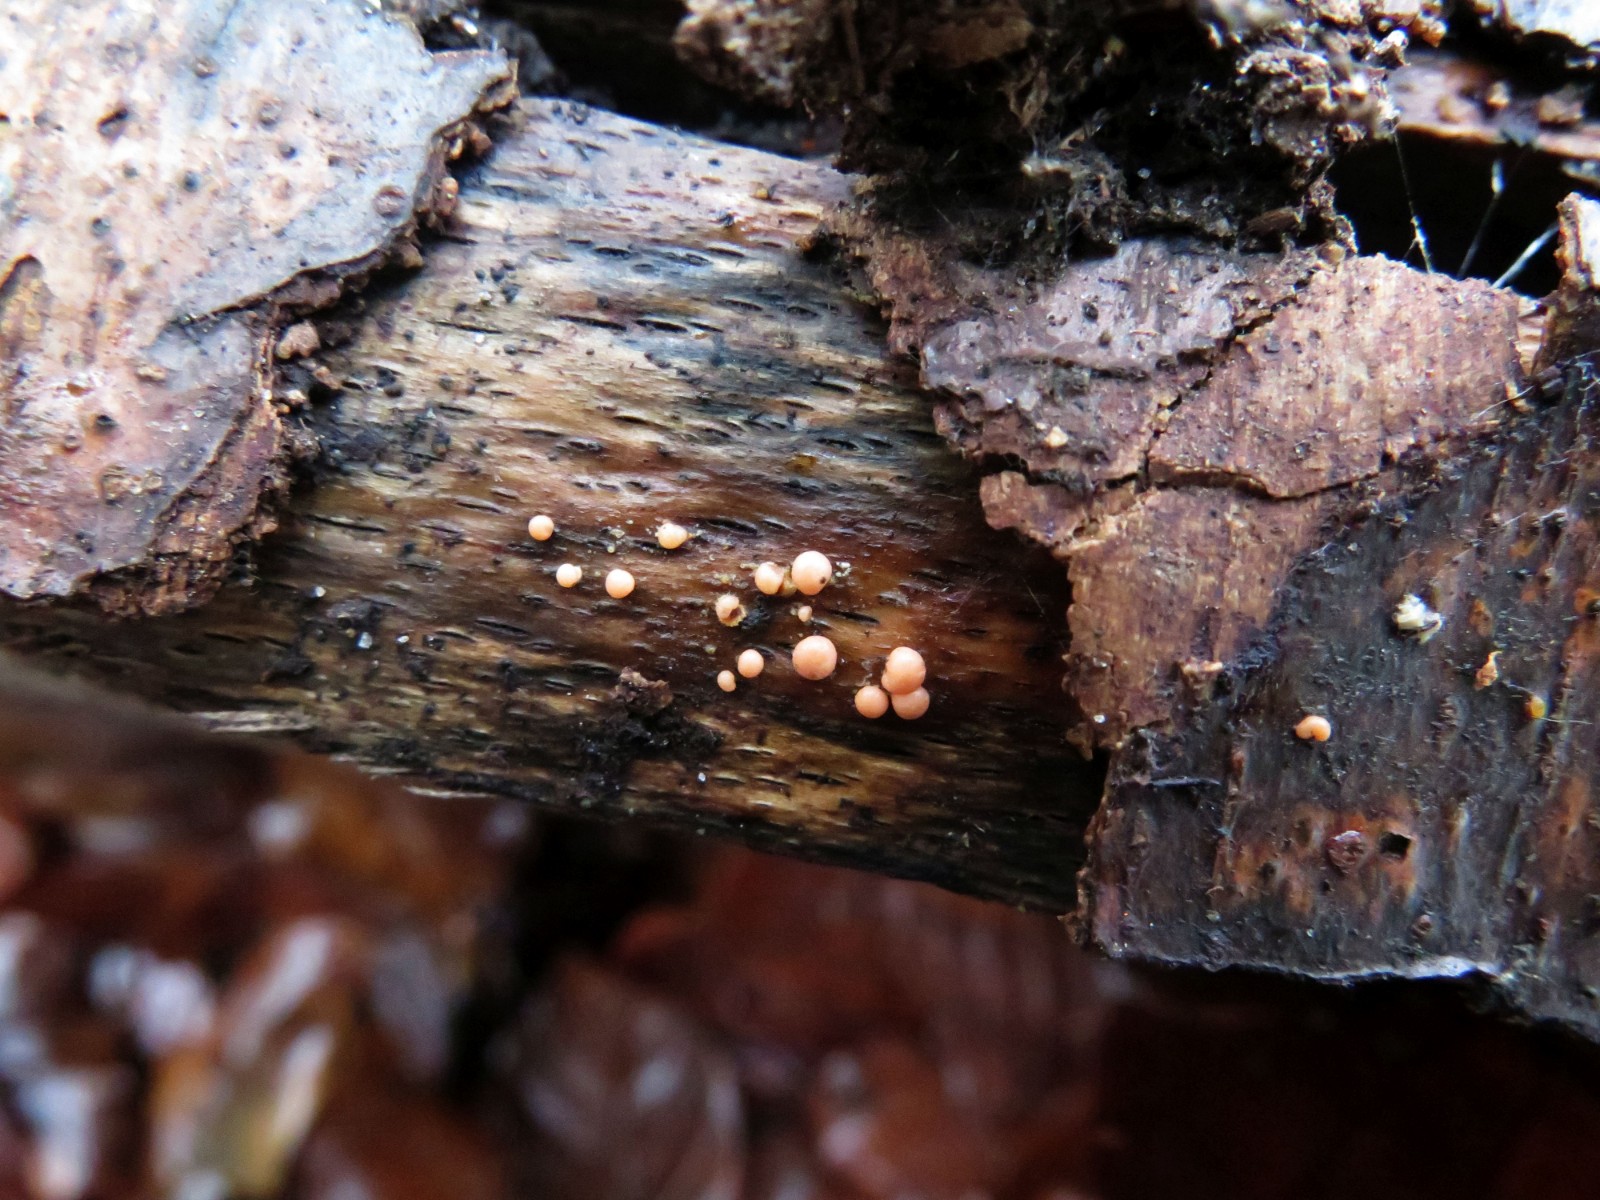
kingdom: Protozoa
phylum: Mycetozoa
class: Myxomycetes
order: Cribrariales
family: Tubiferaceae
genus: Lycogala
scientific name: Lycogala epidendrum
